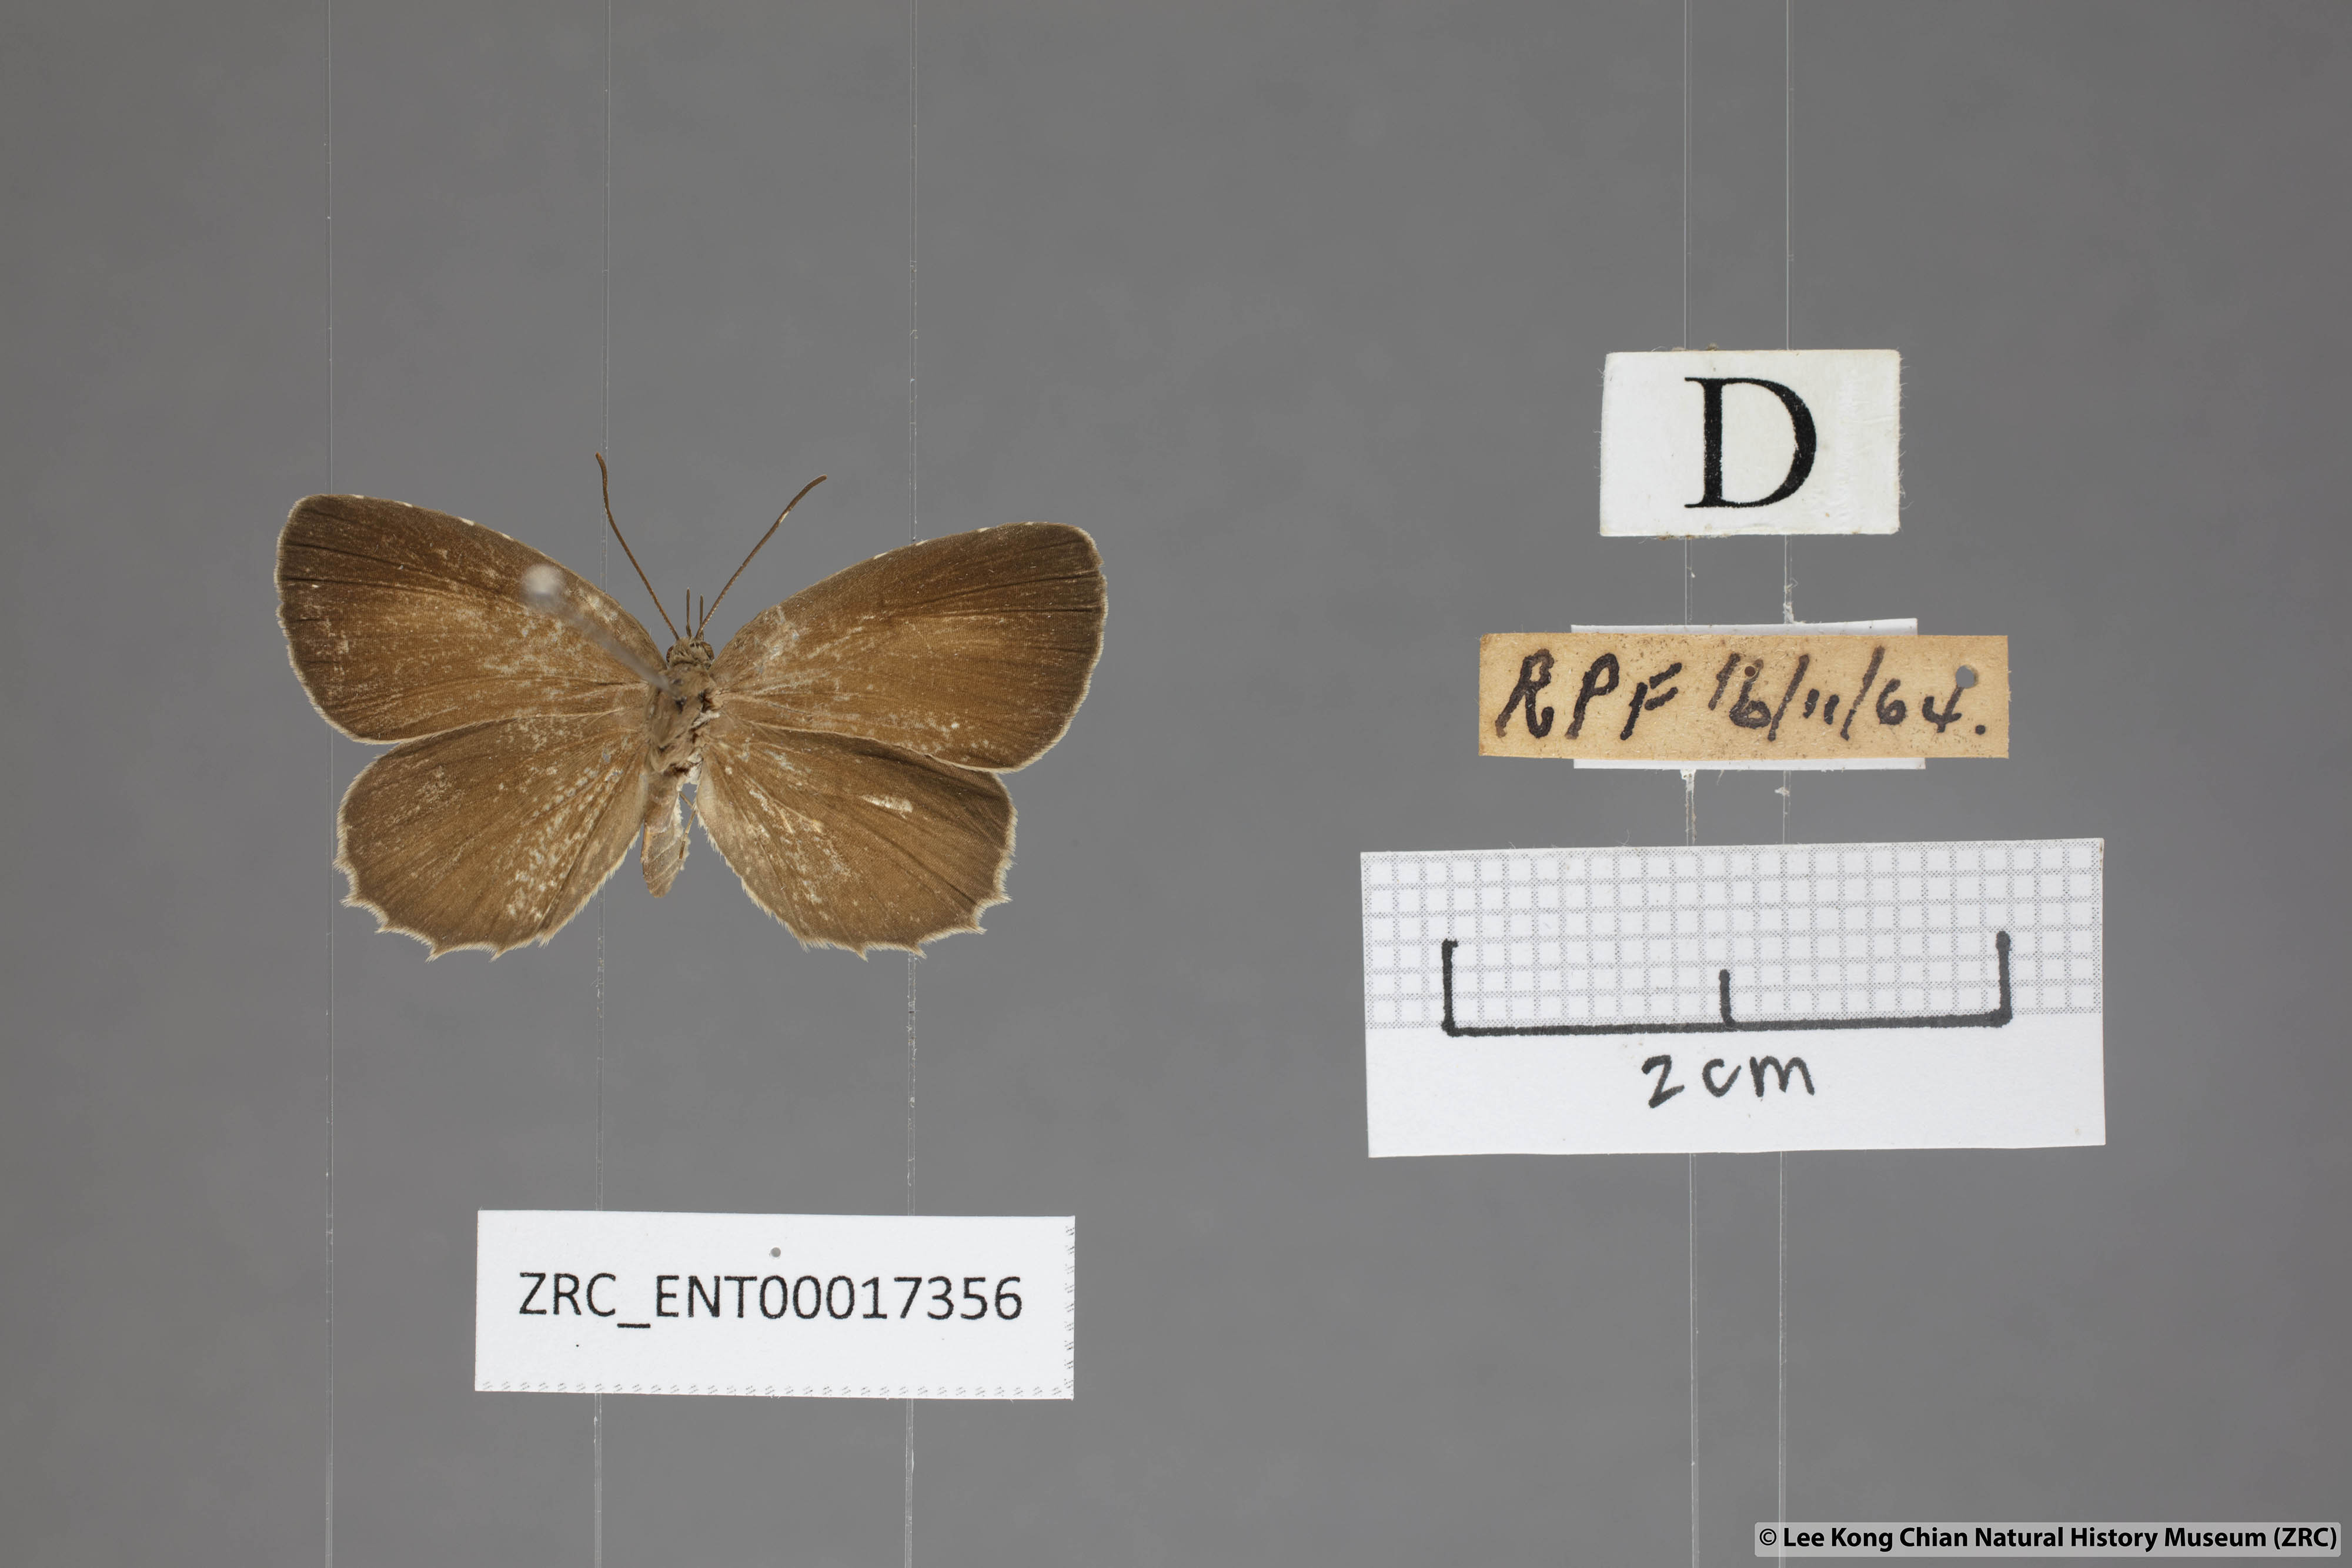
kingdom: Animalia
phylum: Arthropoda
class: Insecta
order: Lepidoptera
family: Lycaenidae
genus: Allotinus
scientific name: Allotinus unicolor
